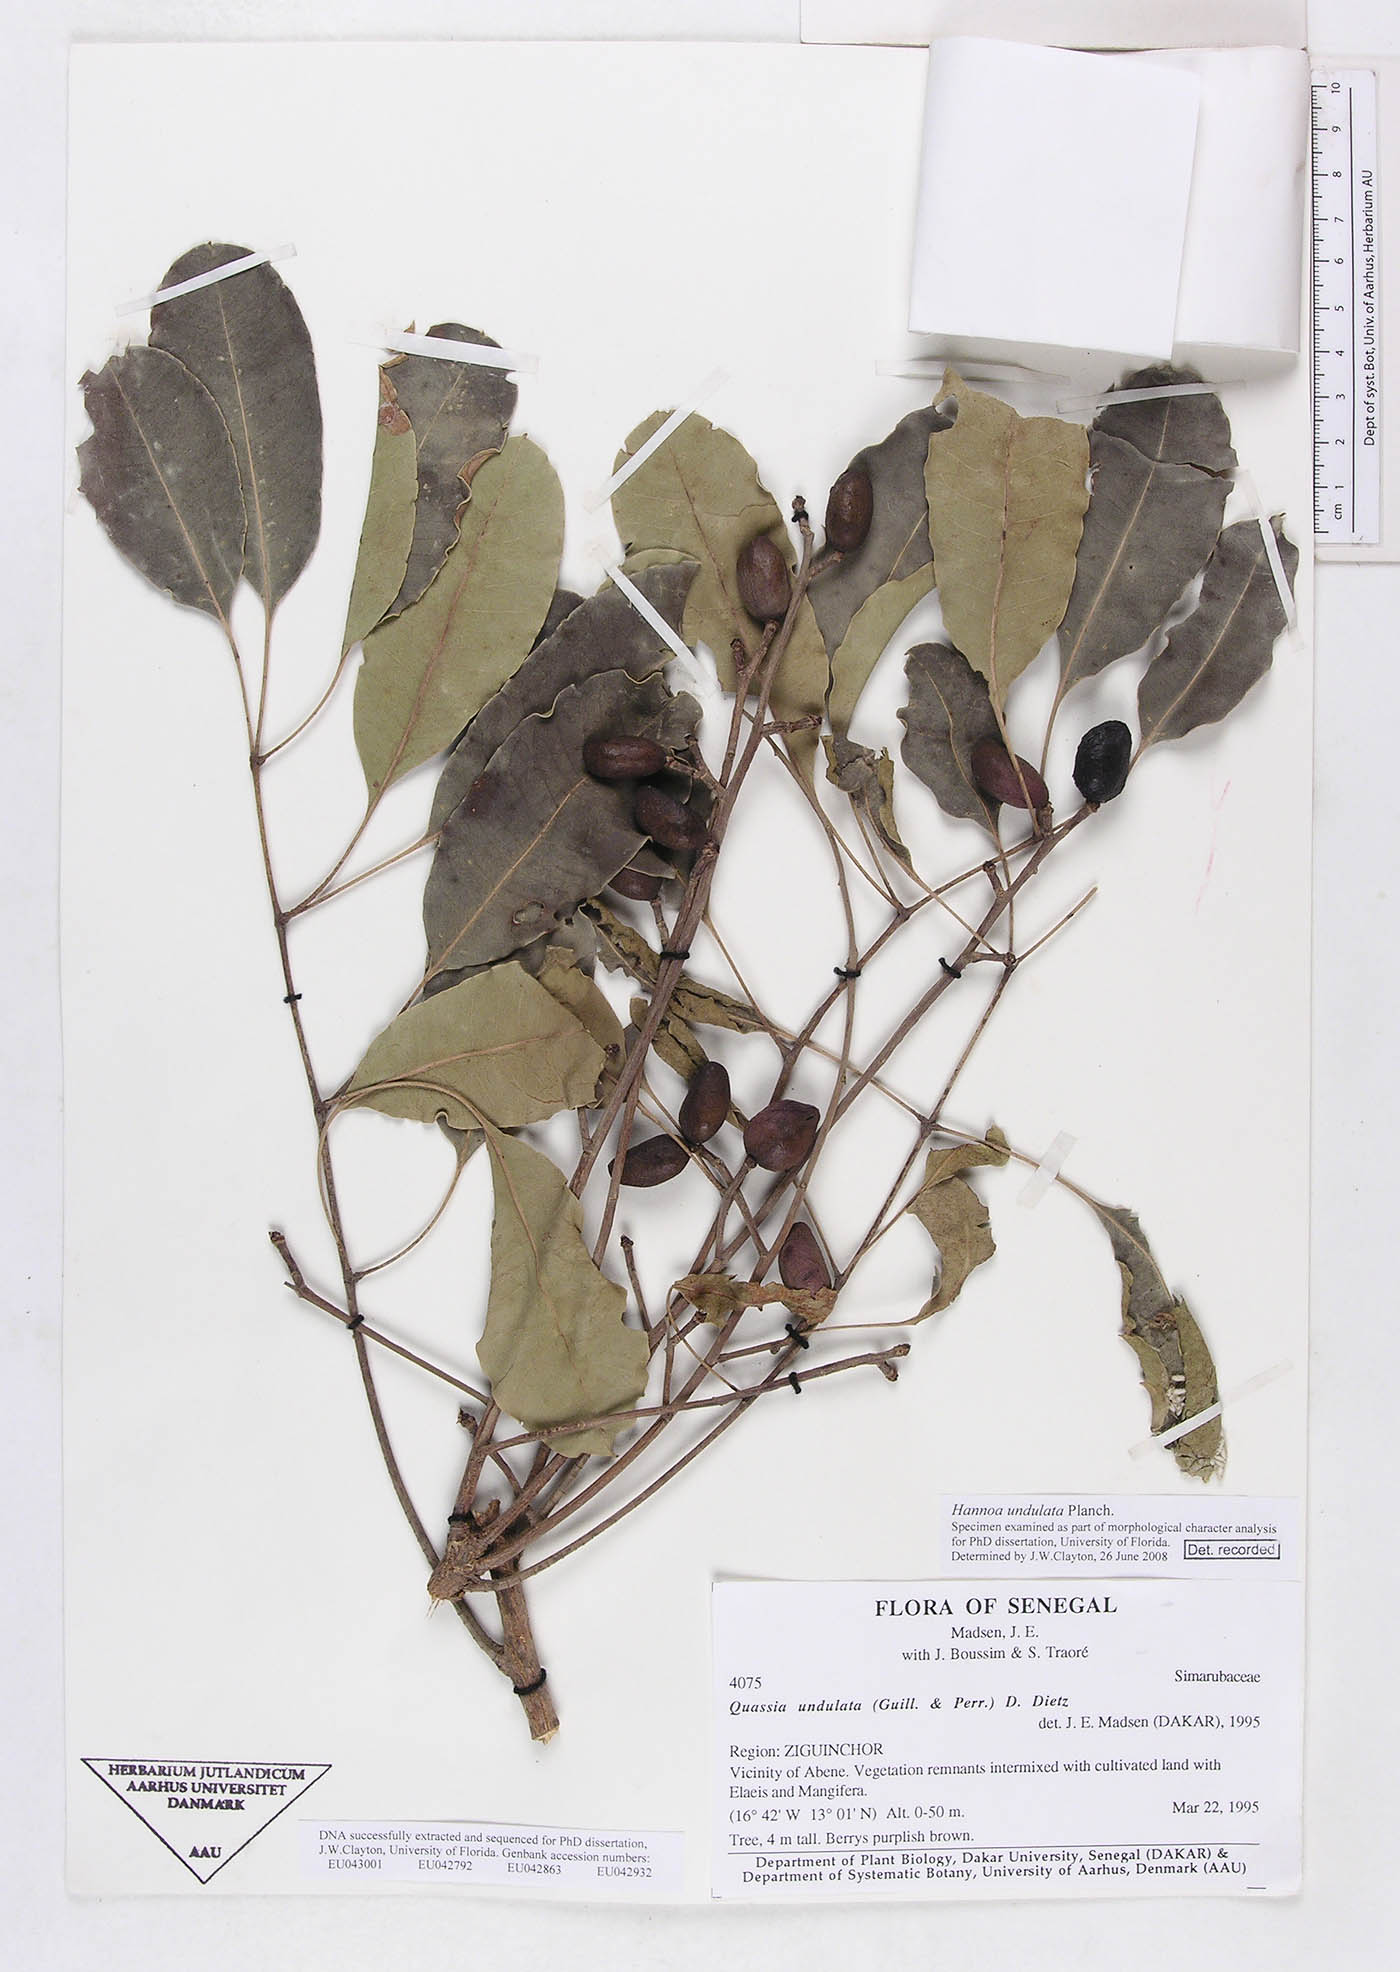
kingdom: Plantae
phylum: Tracheophyta
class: Magnoliopsida
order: Sapindales
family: Simaroubaceae
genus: Odyendyea
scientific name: Odyendyea klaineana
